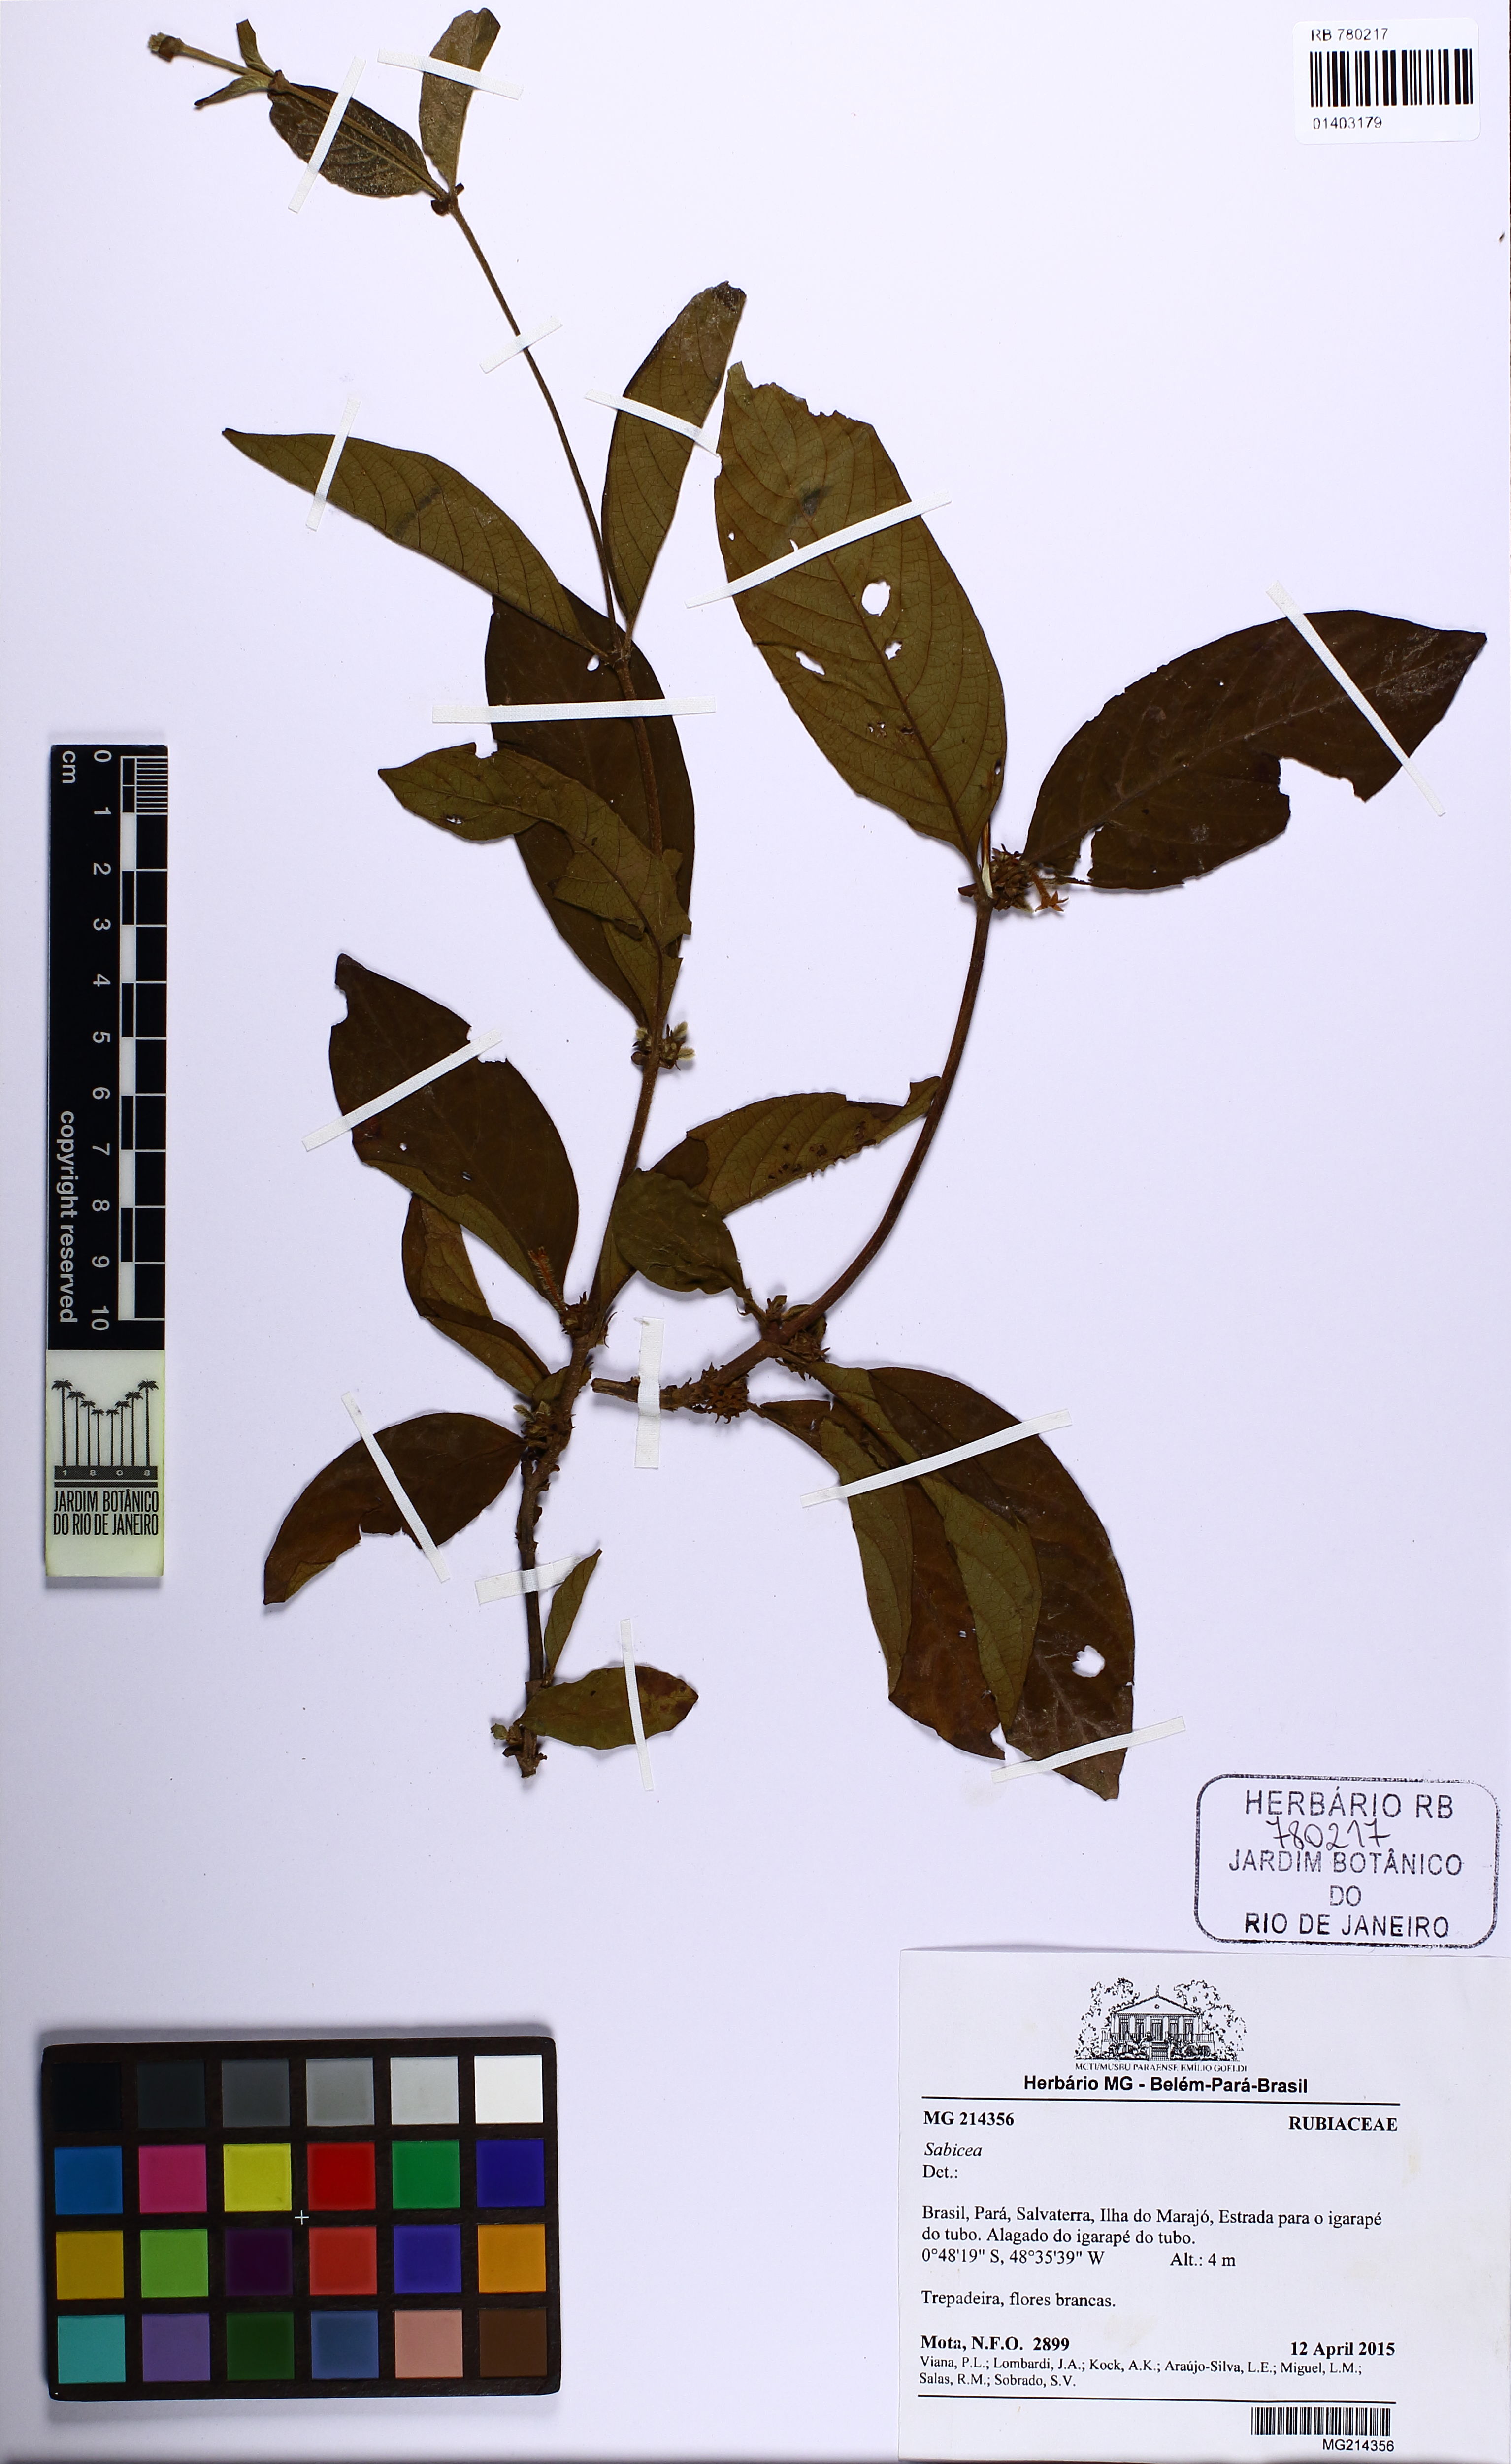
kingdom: Plantae
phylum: Tracheophyta
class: Magnoliopsida
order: Gentianales
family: Rubiaceae
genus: Sabicea
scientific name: Sabicea
